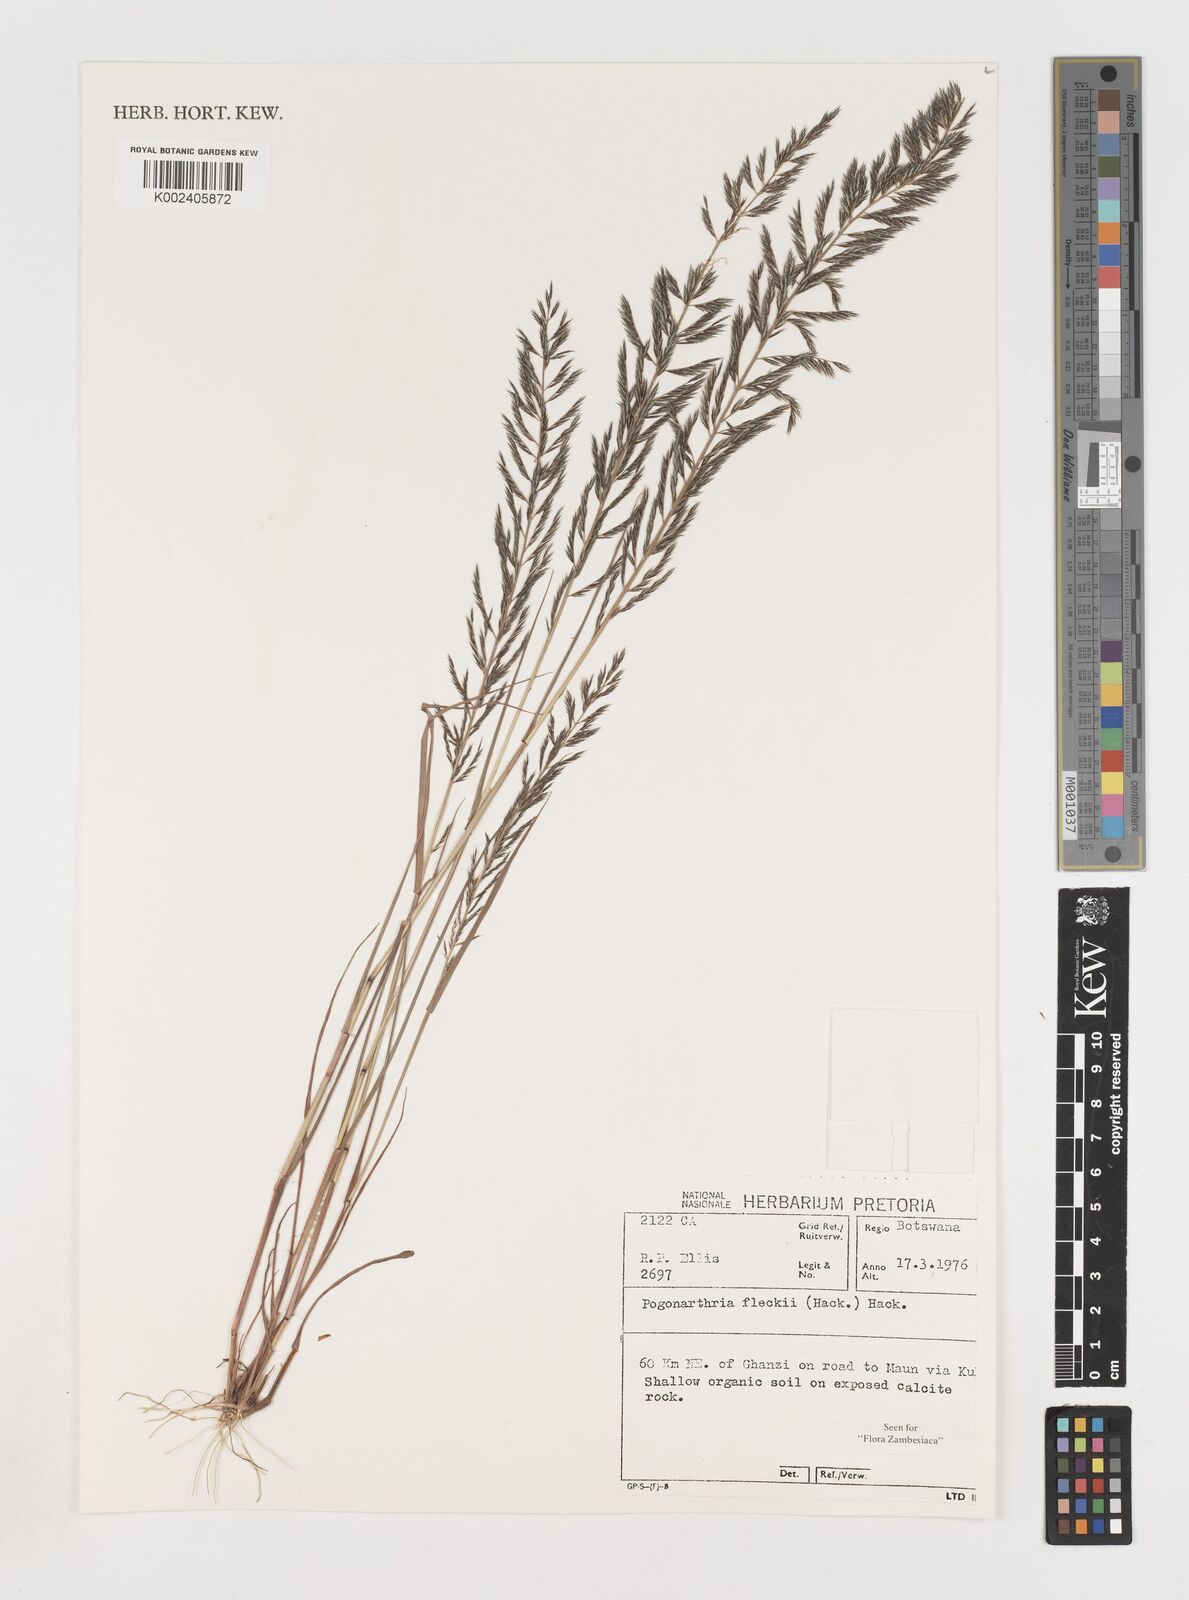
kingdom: Plantae
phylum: Tracheophyta
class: Liliopsida
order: Poales
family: Poaceae
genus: Pogonarthria
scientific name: Pogonarthria fleckii
